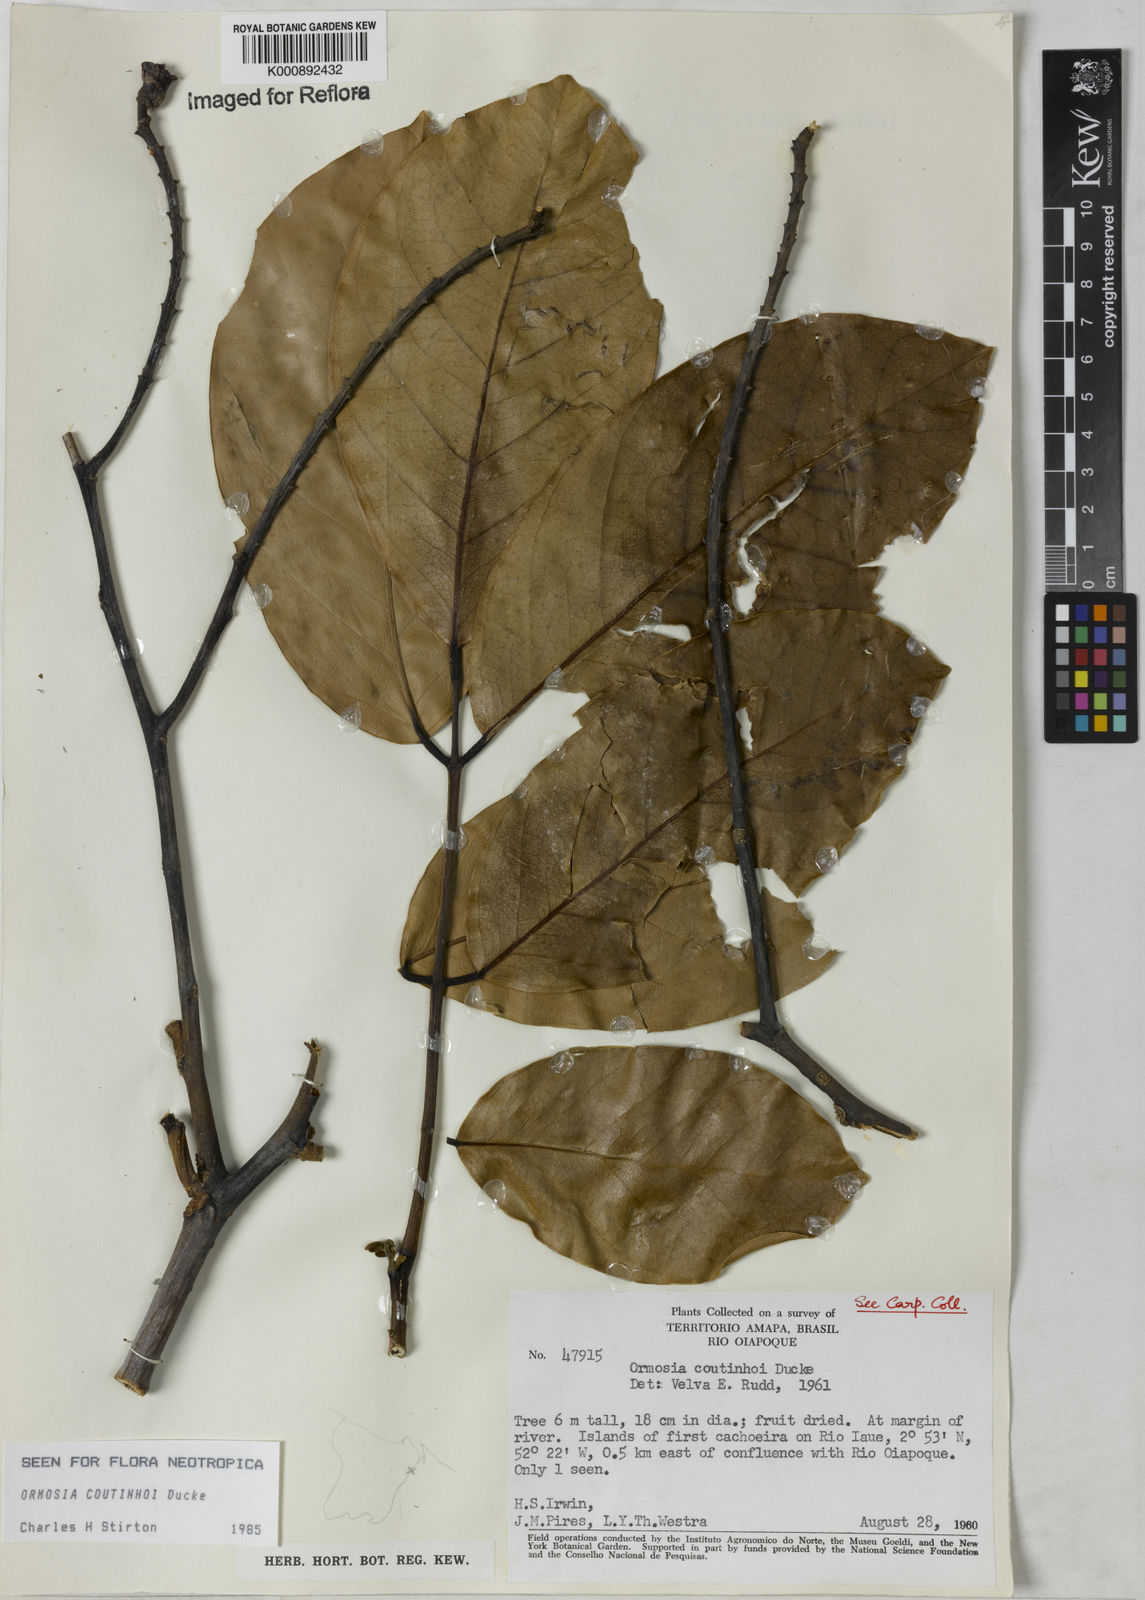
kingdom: Plantae
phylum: Tracheophyta
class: Magnoliopsida
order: Fabales
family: Fabaceae
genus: Ormosia
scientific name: Ormosia coutinhoi
